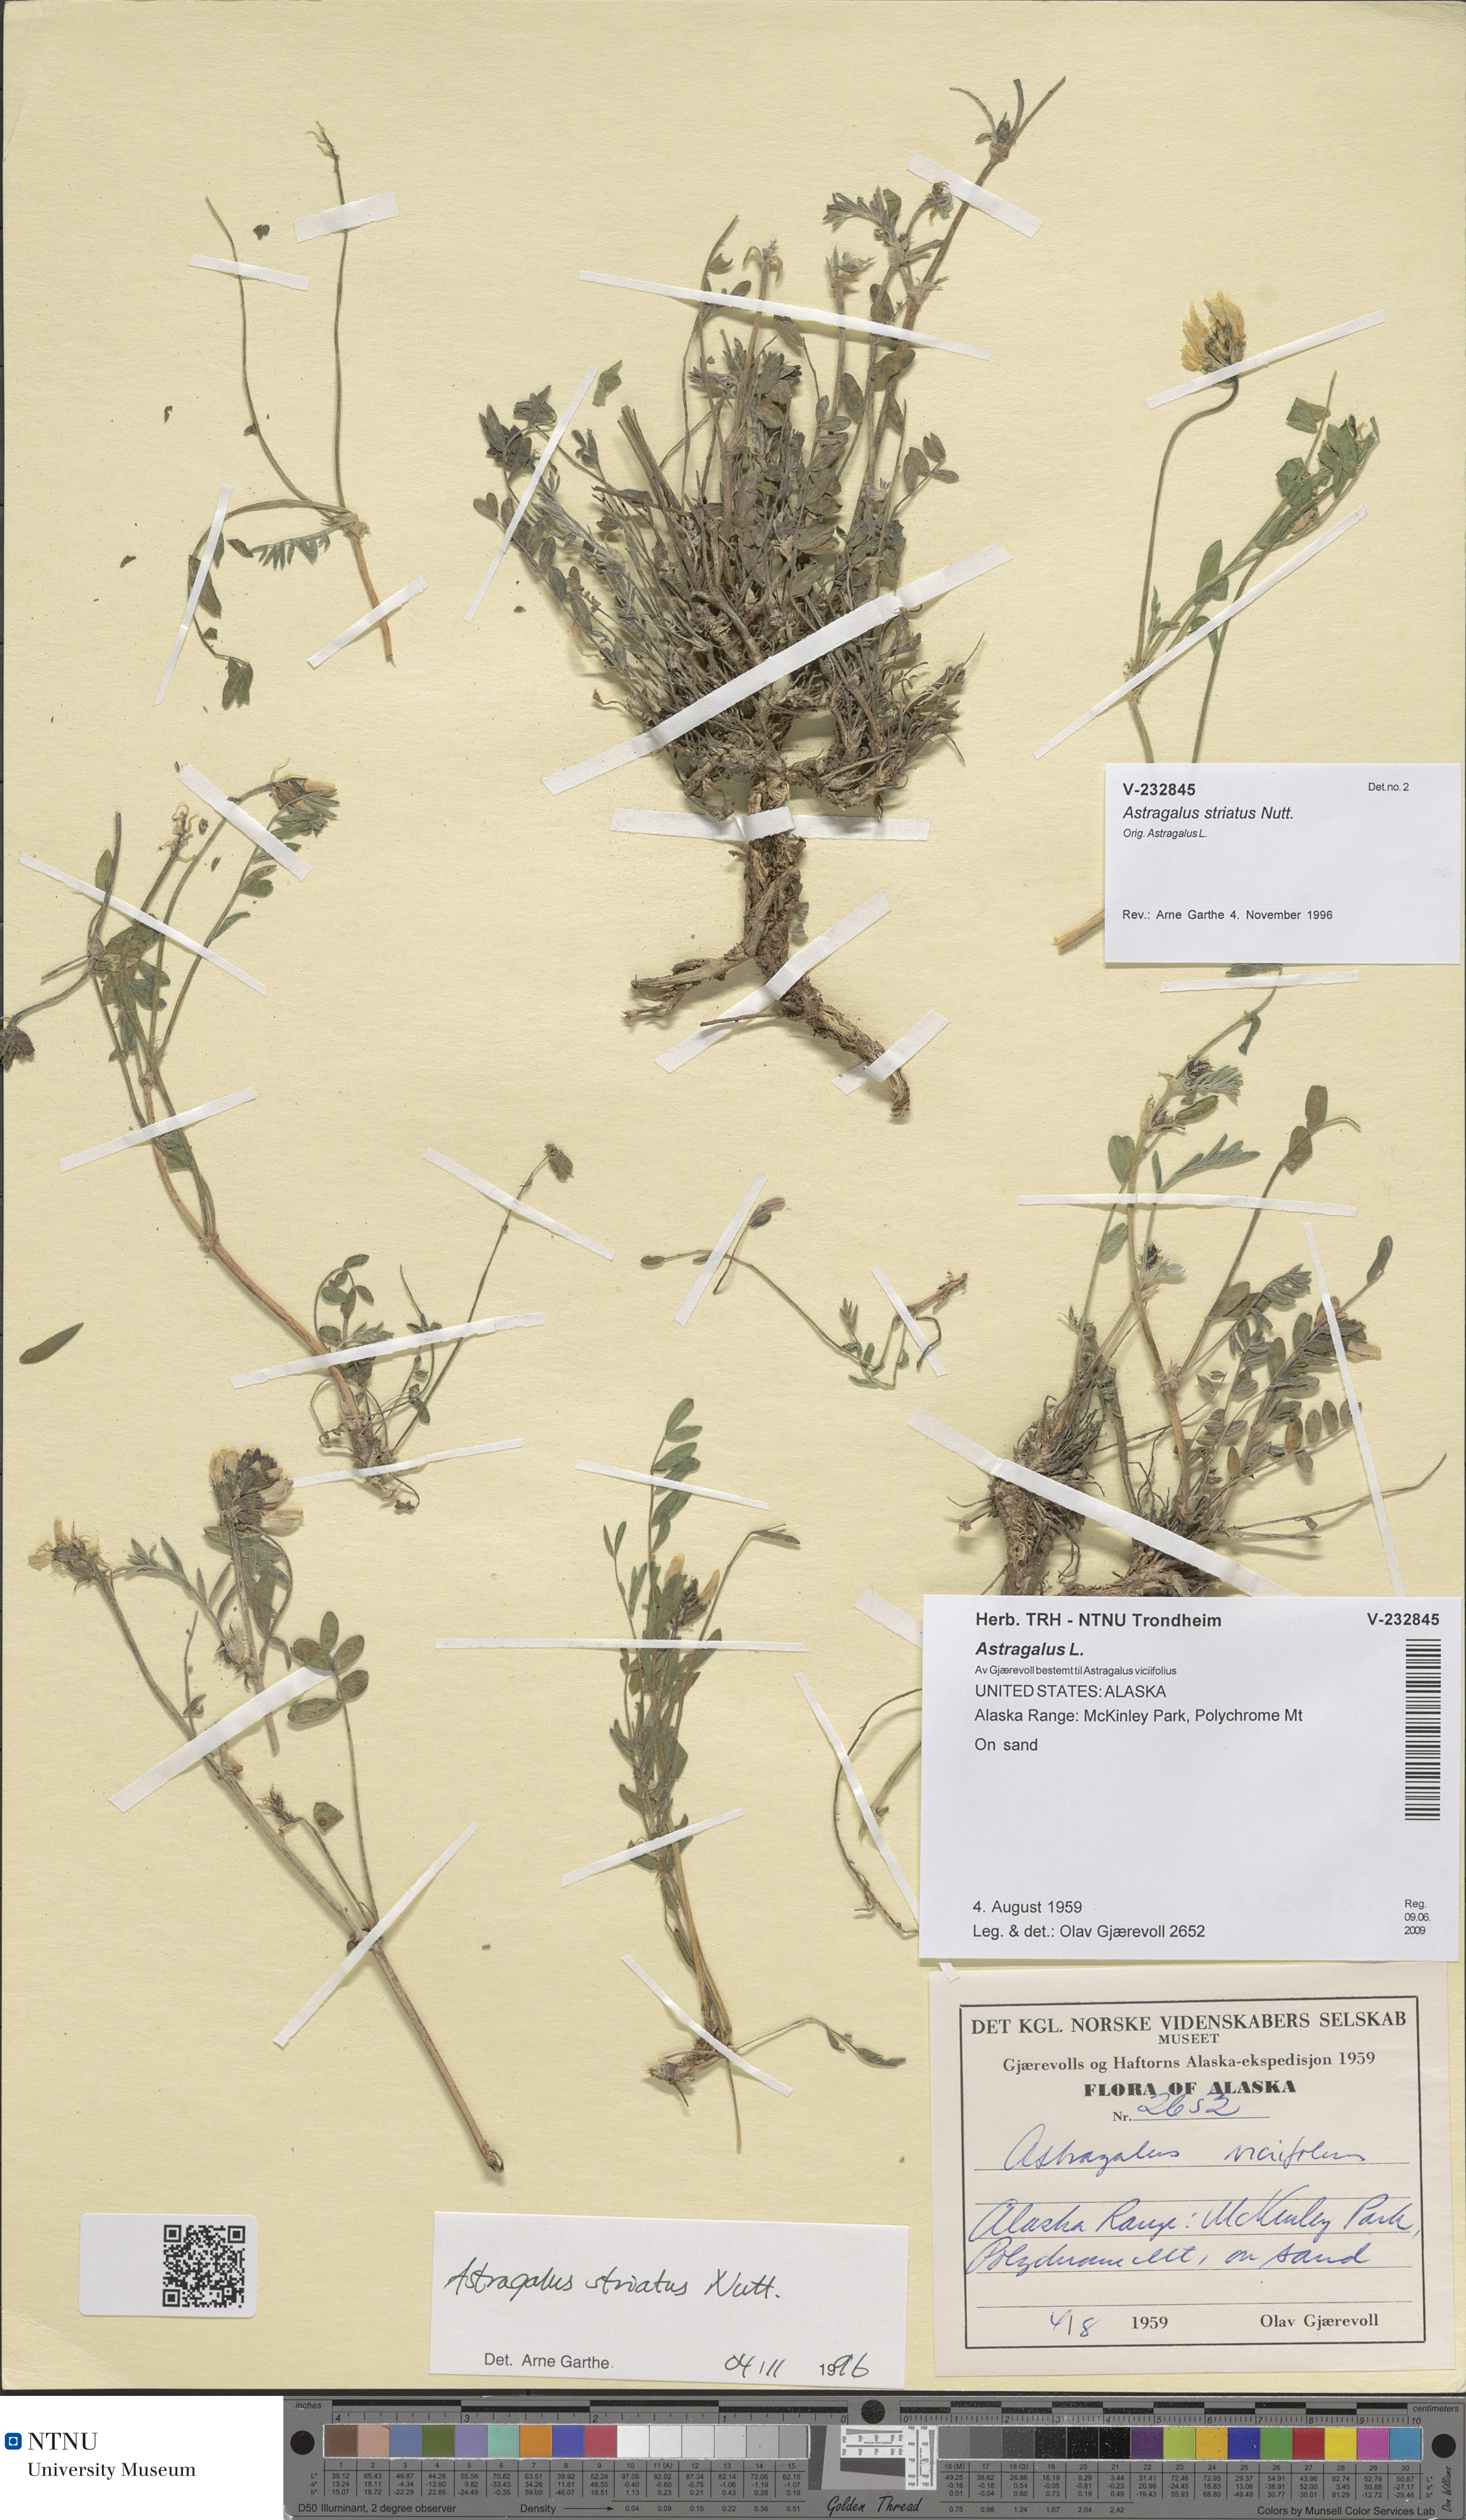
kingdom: Plantae
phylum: Tracheophyta
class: Magnoliopsida
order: Fabales
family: Fabaceae
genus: Astragalus
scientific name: Astragalus laxmannii
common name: Laxmann's milk-vetch
